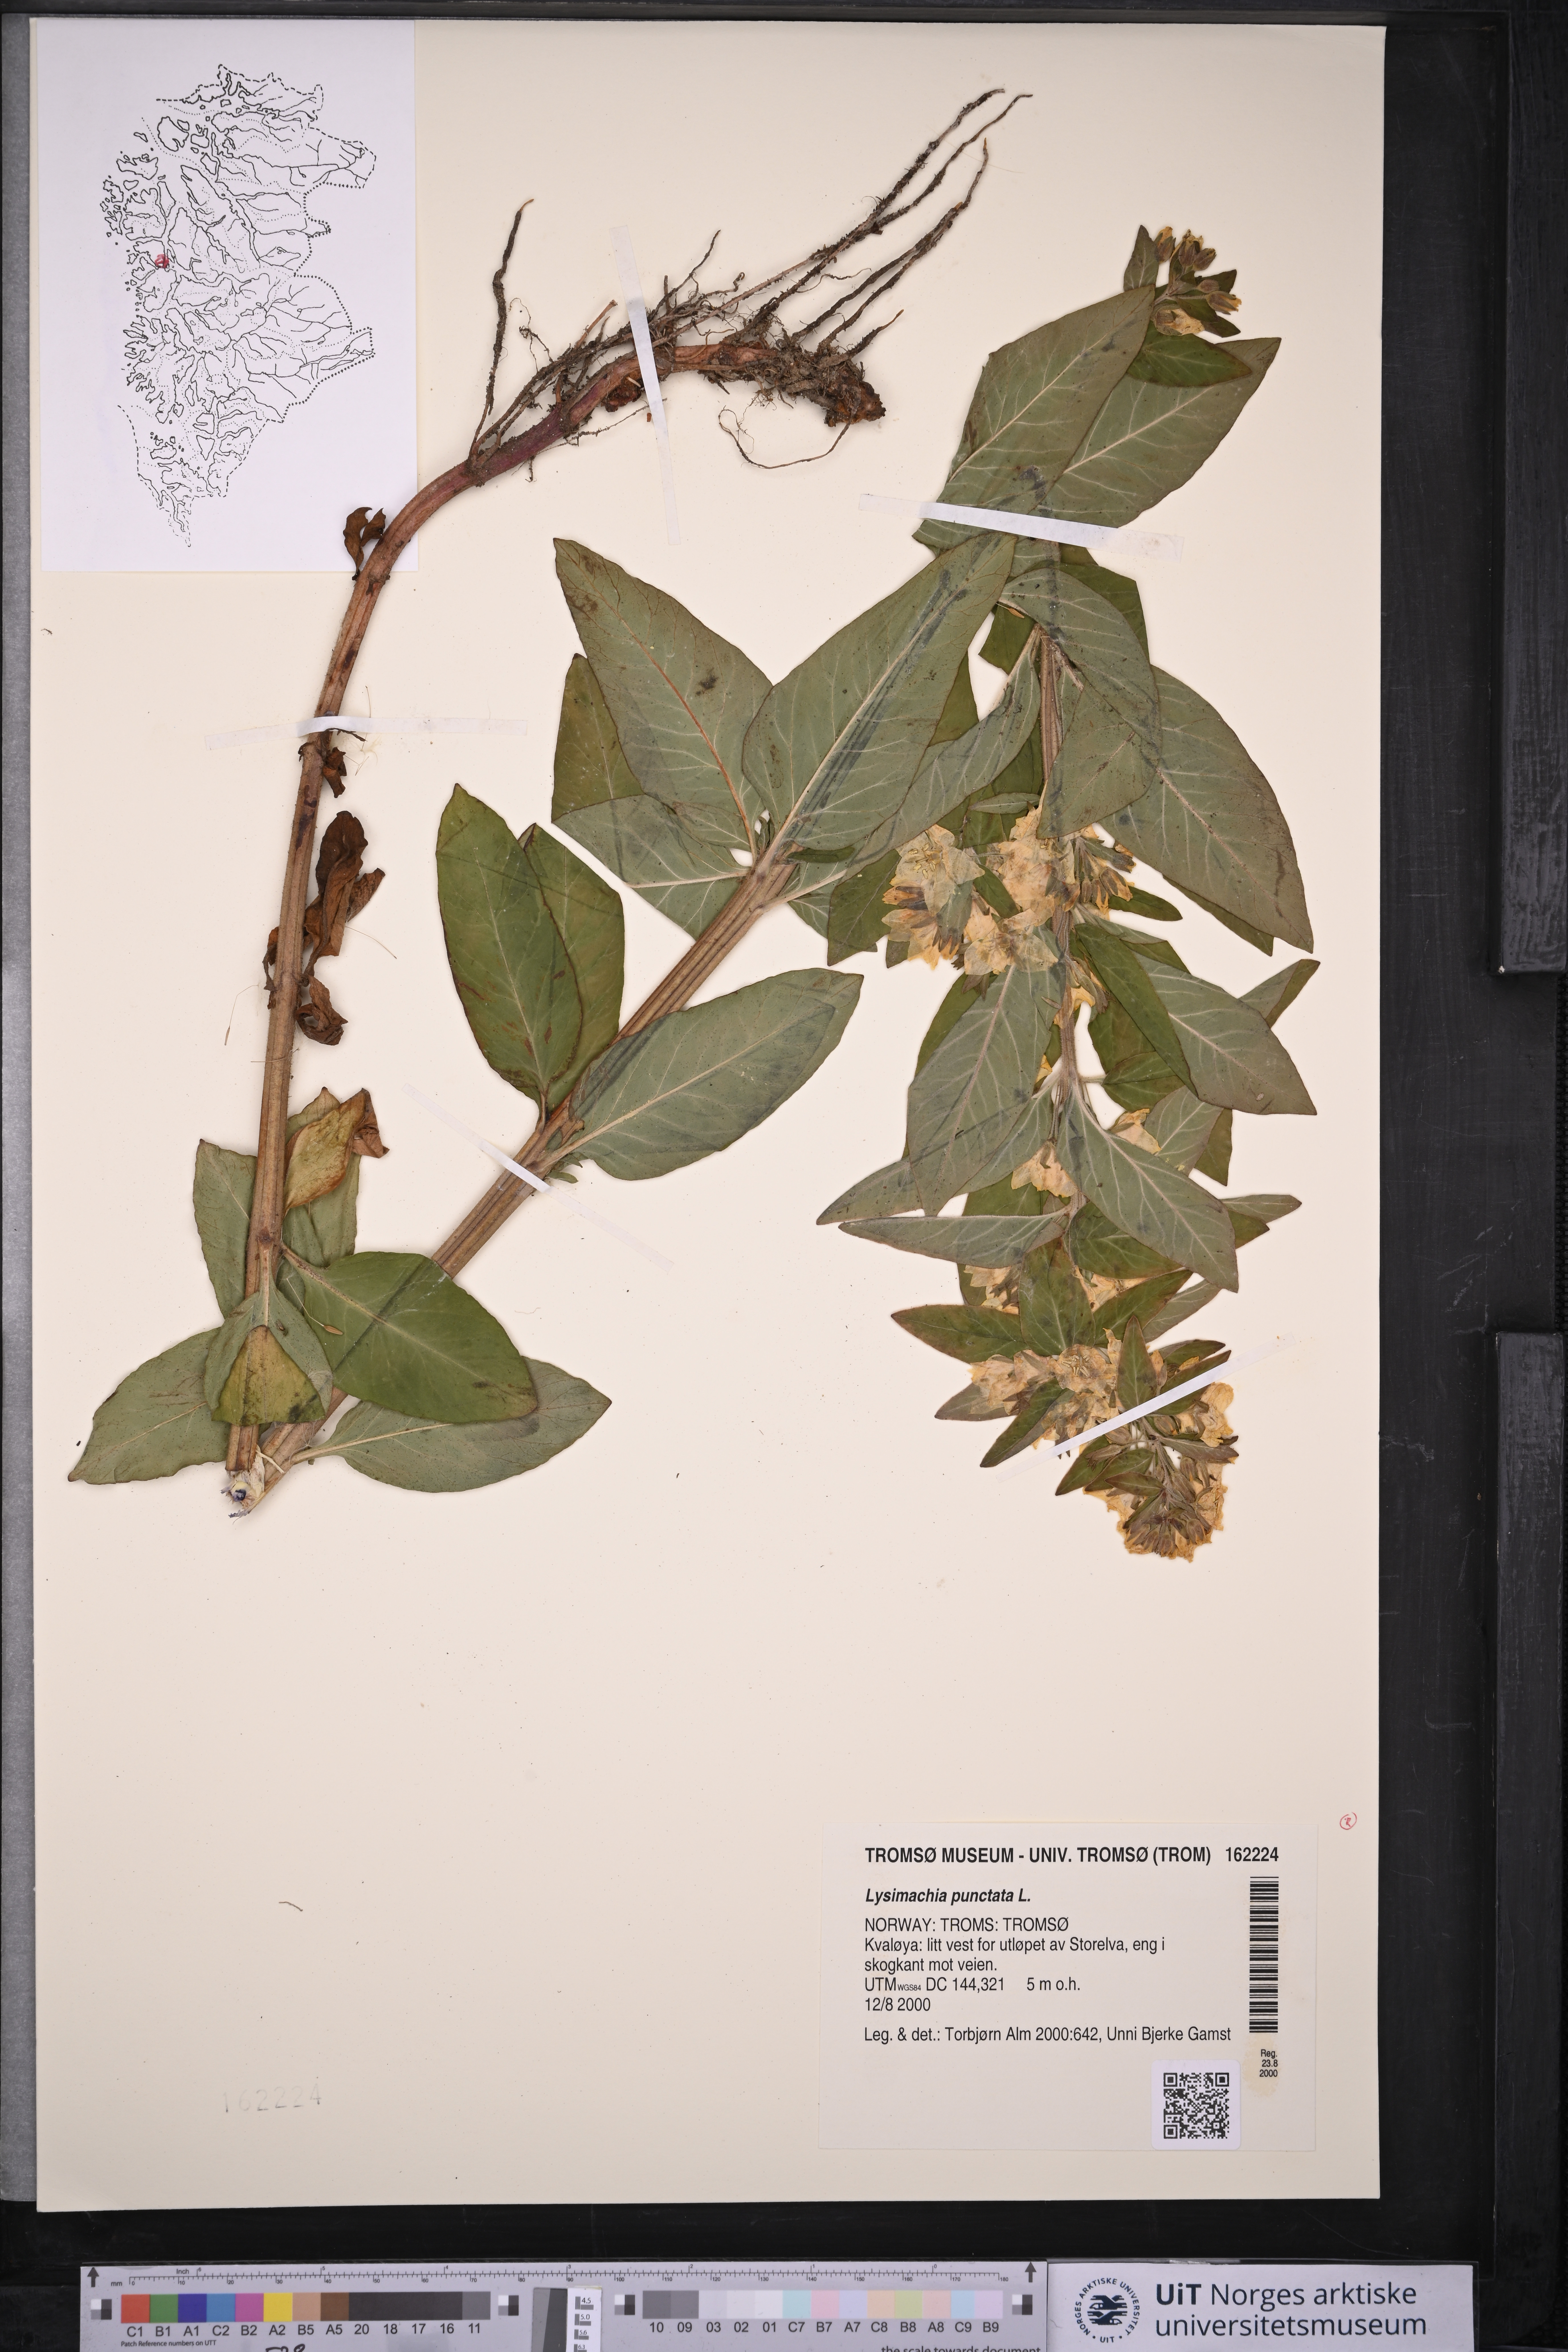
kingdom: Plantae
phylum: Tracheophyta
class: Magnoliopsida
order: Ericales
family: Primulaceae
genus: Lysimachia
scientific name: Lysimachia punctata
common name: Dotted loosestrife
